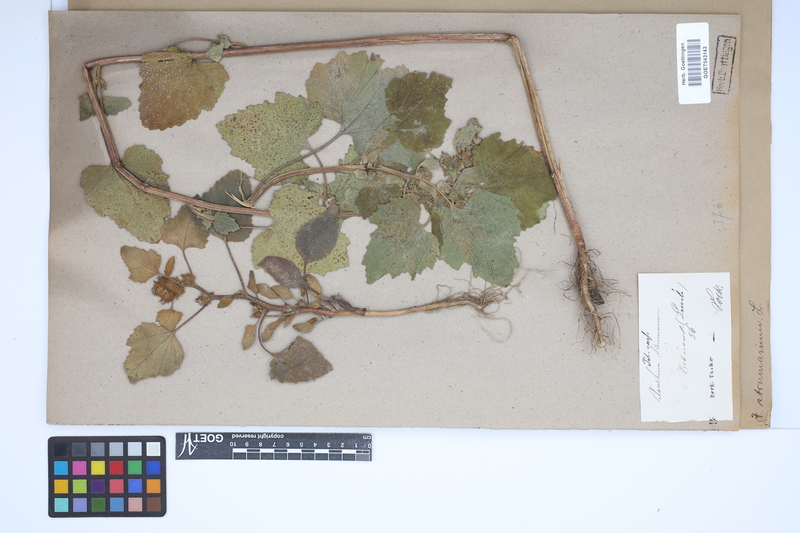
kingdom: Plantae
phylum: Tracheophyta
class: Magnoliopsida
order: Asterales
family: Asteraceae
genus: Xanthium
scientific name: Xanthium strumarium
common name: Rough cocklebur
